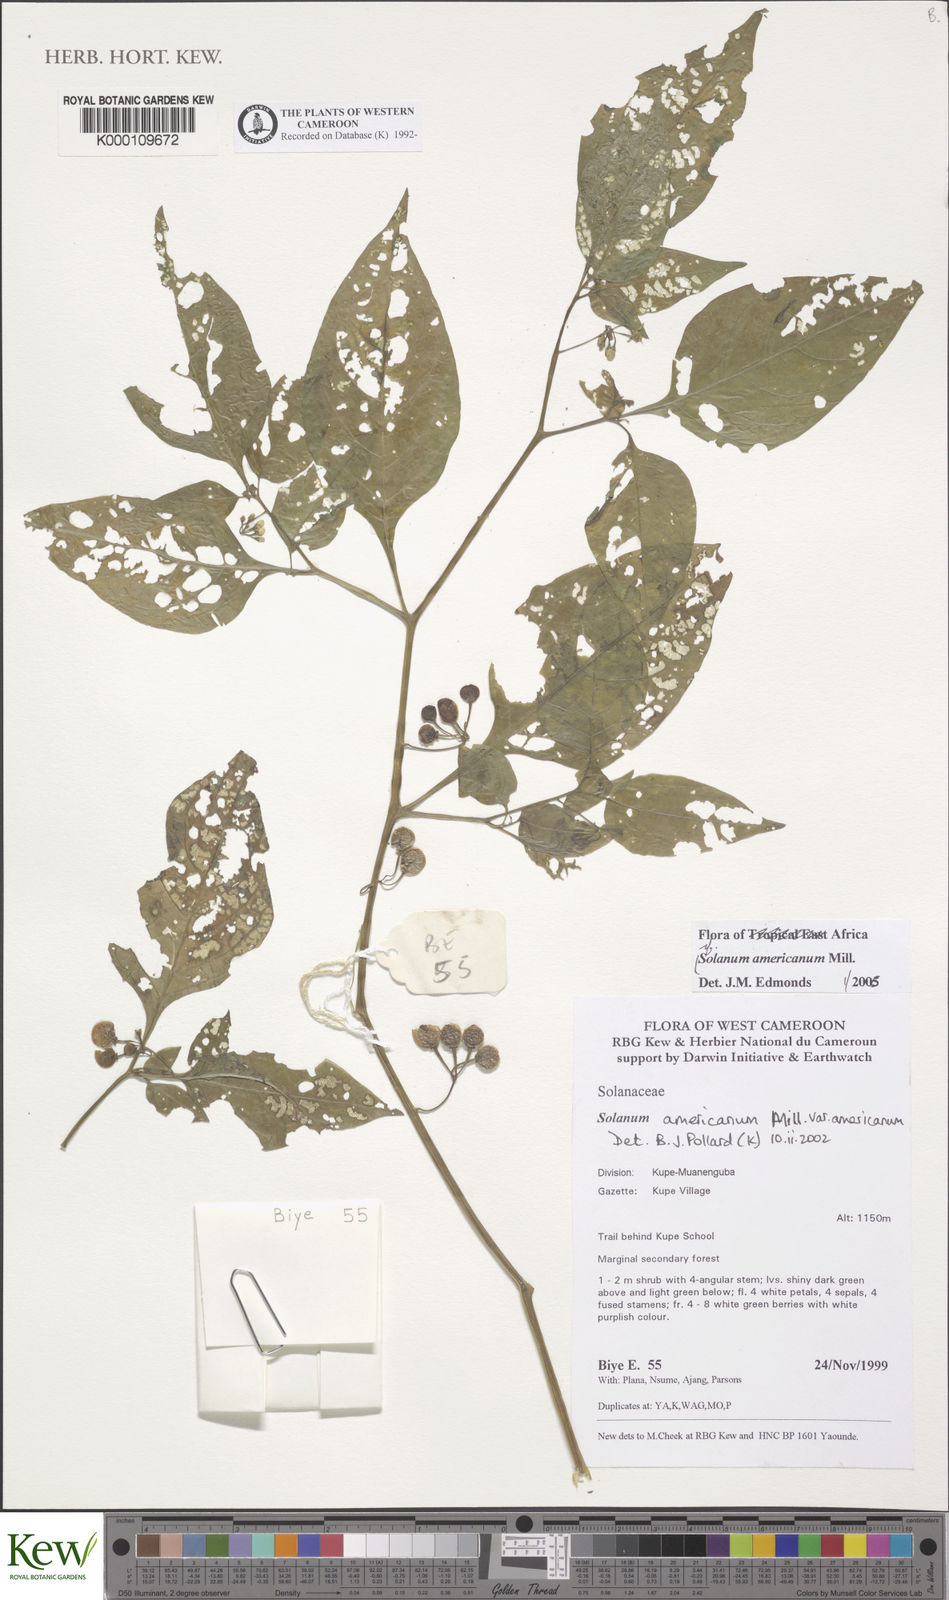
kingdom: Plantae
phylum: Tracheophyta
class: Magnoliopsida
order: Solanales
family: Solanaceae
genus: Solanum
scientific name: Solanum americanum
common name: American black nightshade
